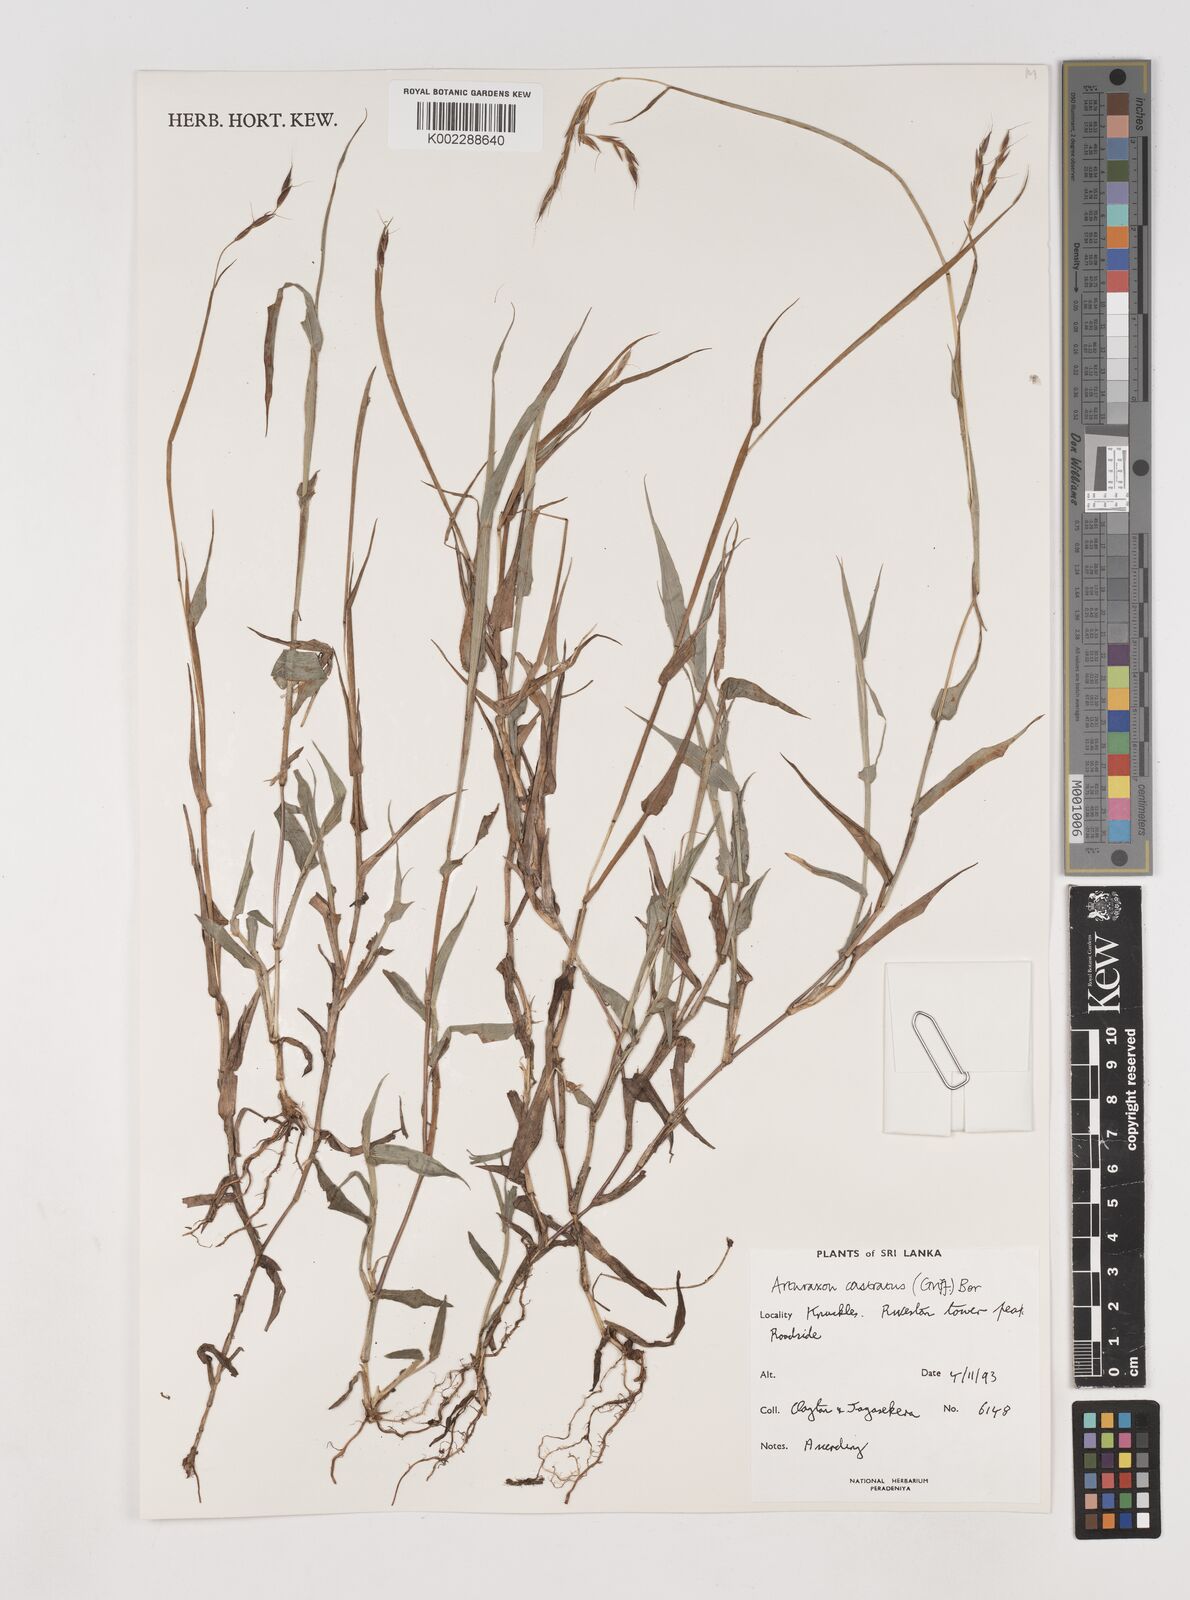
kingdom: Plantae
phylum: Tracheophyta
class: Liliopsida
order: Poales
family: Poaceae
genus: Arthraxon
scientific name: Arthraxon castratus
